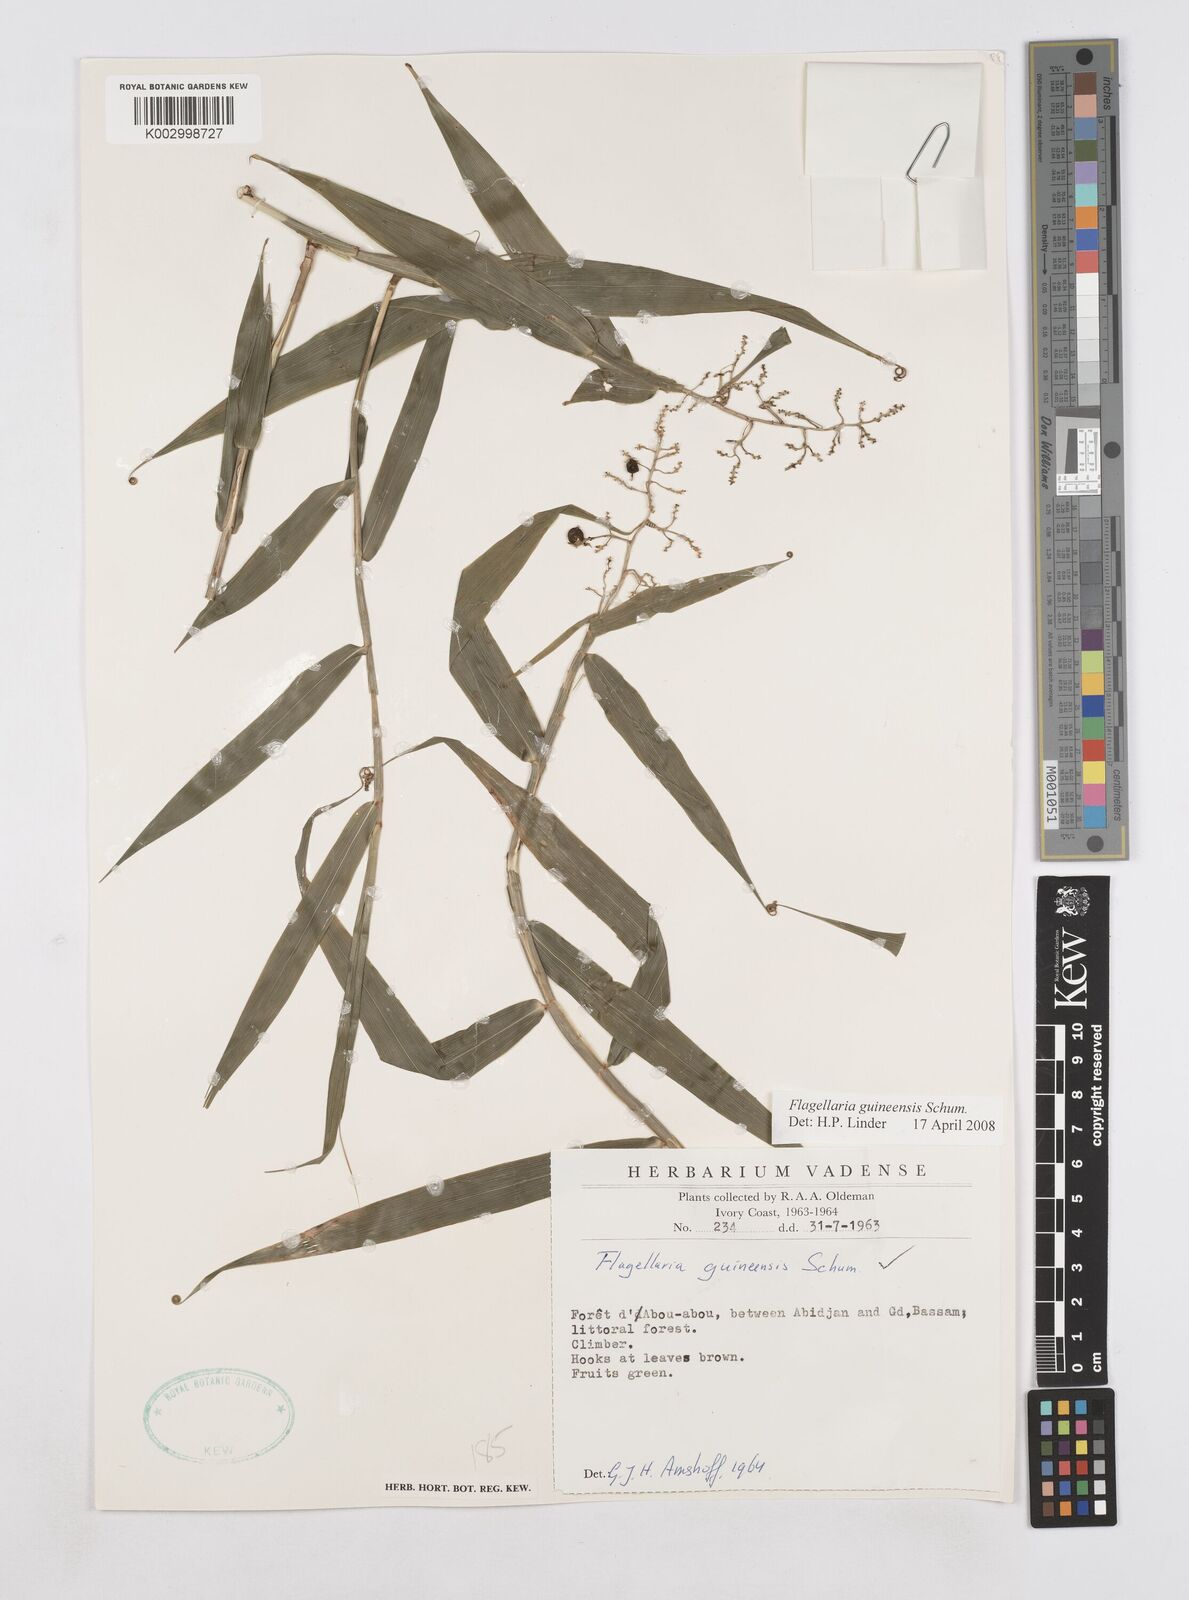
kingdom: Plantae
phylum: Tracheophyta
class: Liliopsida
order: Poales
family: Flagellariaceae
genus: Flagellaria
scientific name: Flagellaria guineensis
